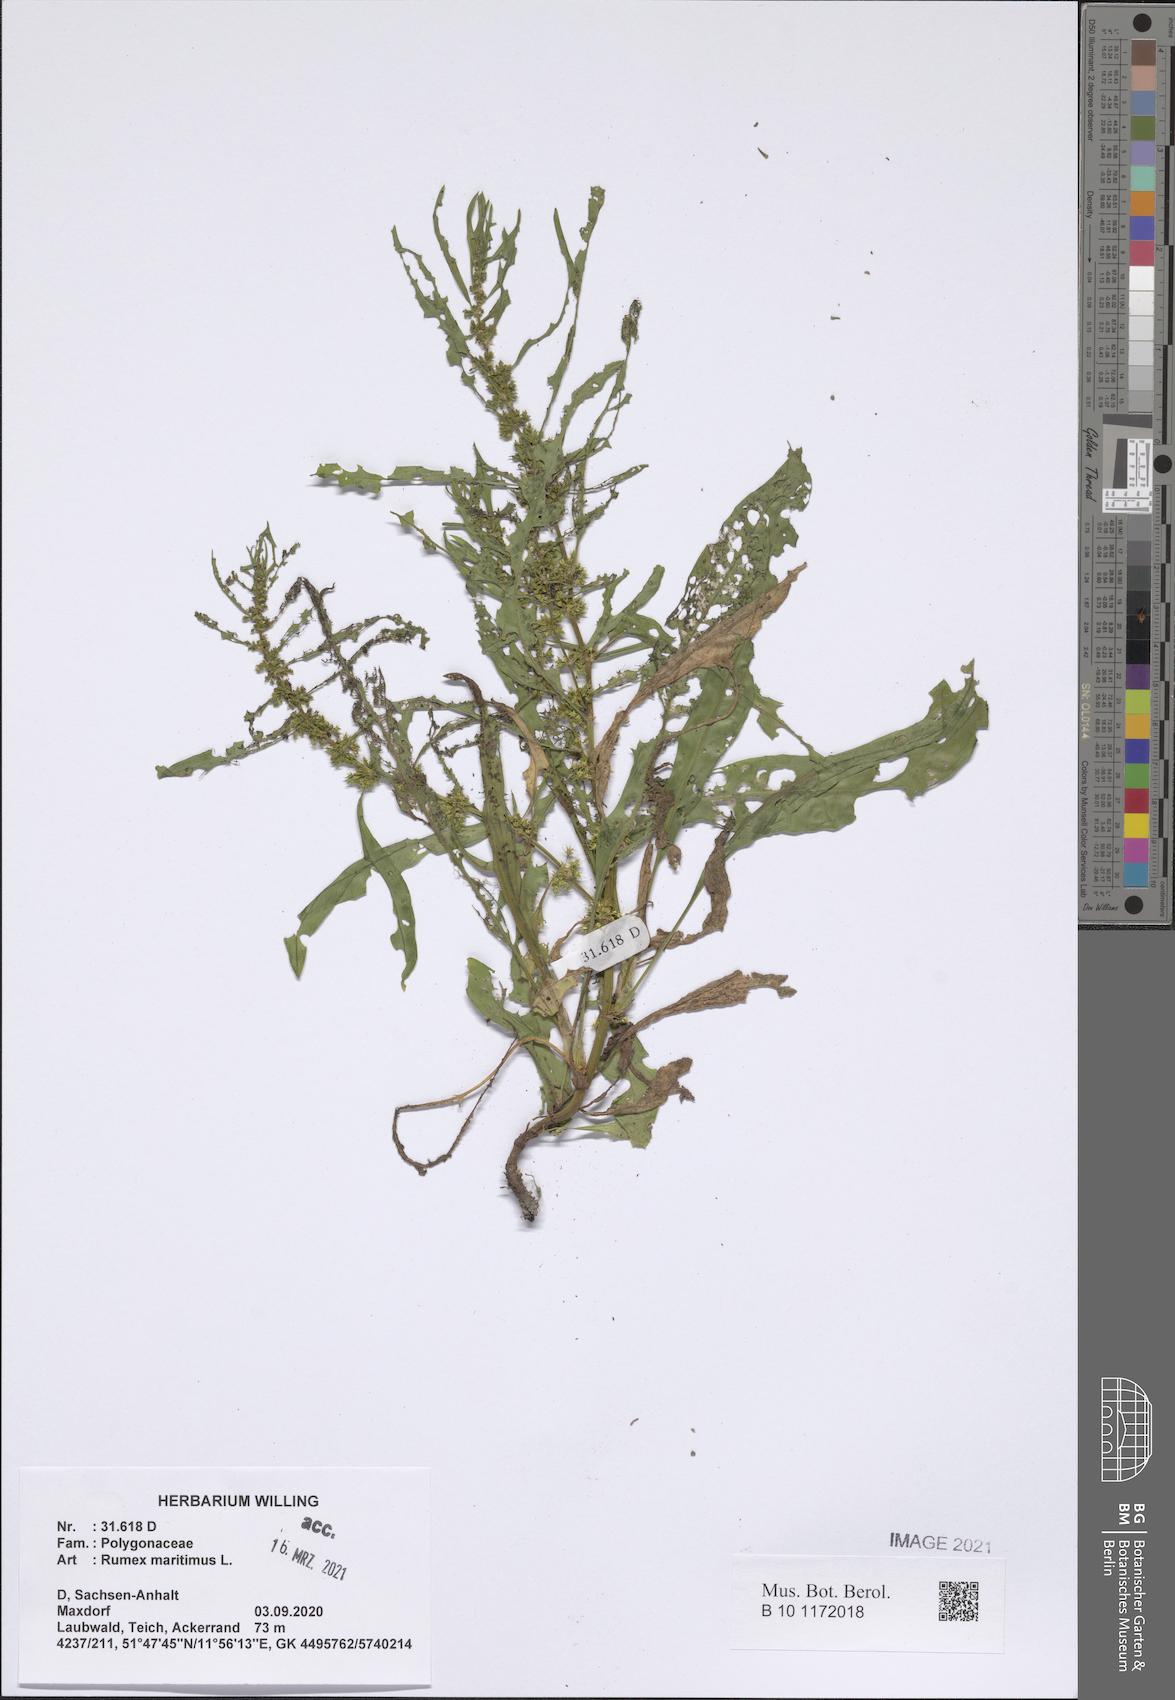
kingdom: Plantae
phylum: Tracheophyta
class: Magnoliopsida
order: Caryophyllales
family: Polygonaceae
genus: Rumex
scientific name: Rumex maritimus
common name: Golden dock
